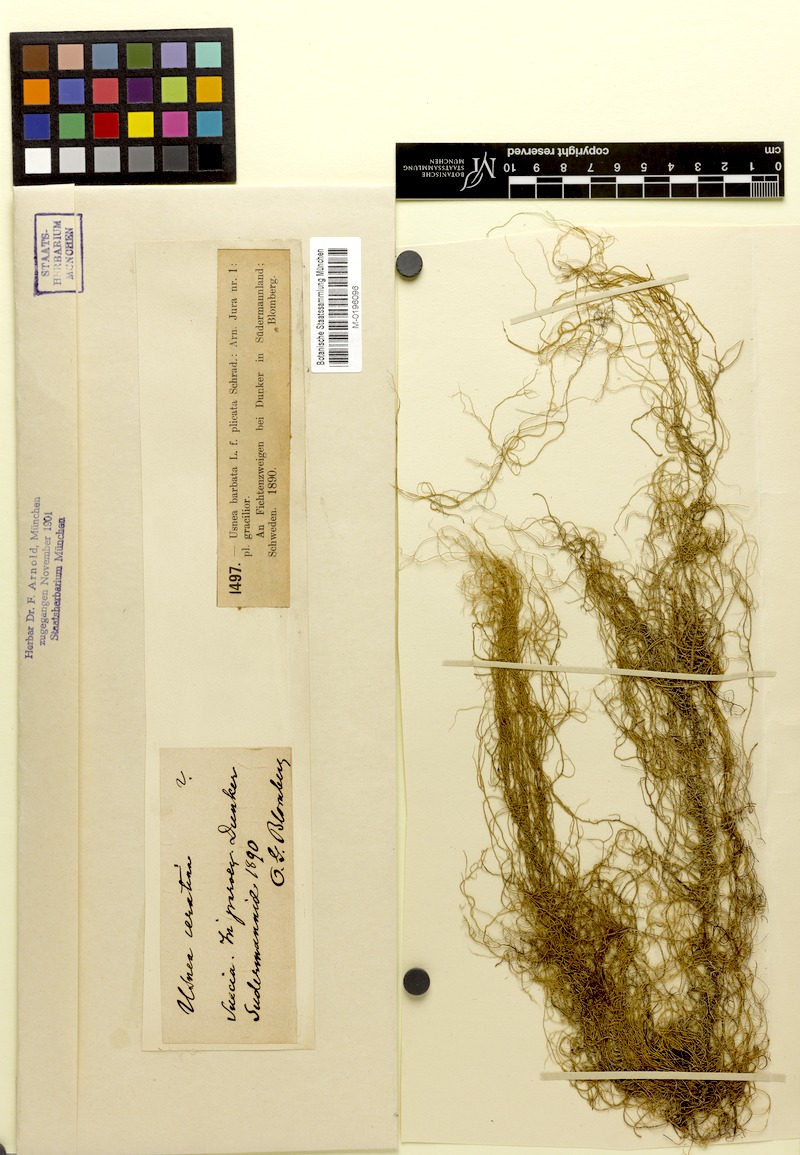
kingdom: Fungi
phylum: Ascomycota
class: Lecanoromycetes
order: Lecanorales
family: Parmeliaceae
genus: Usnea
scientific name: Usnea plicata
